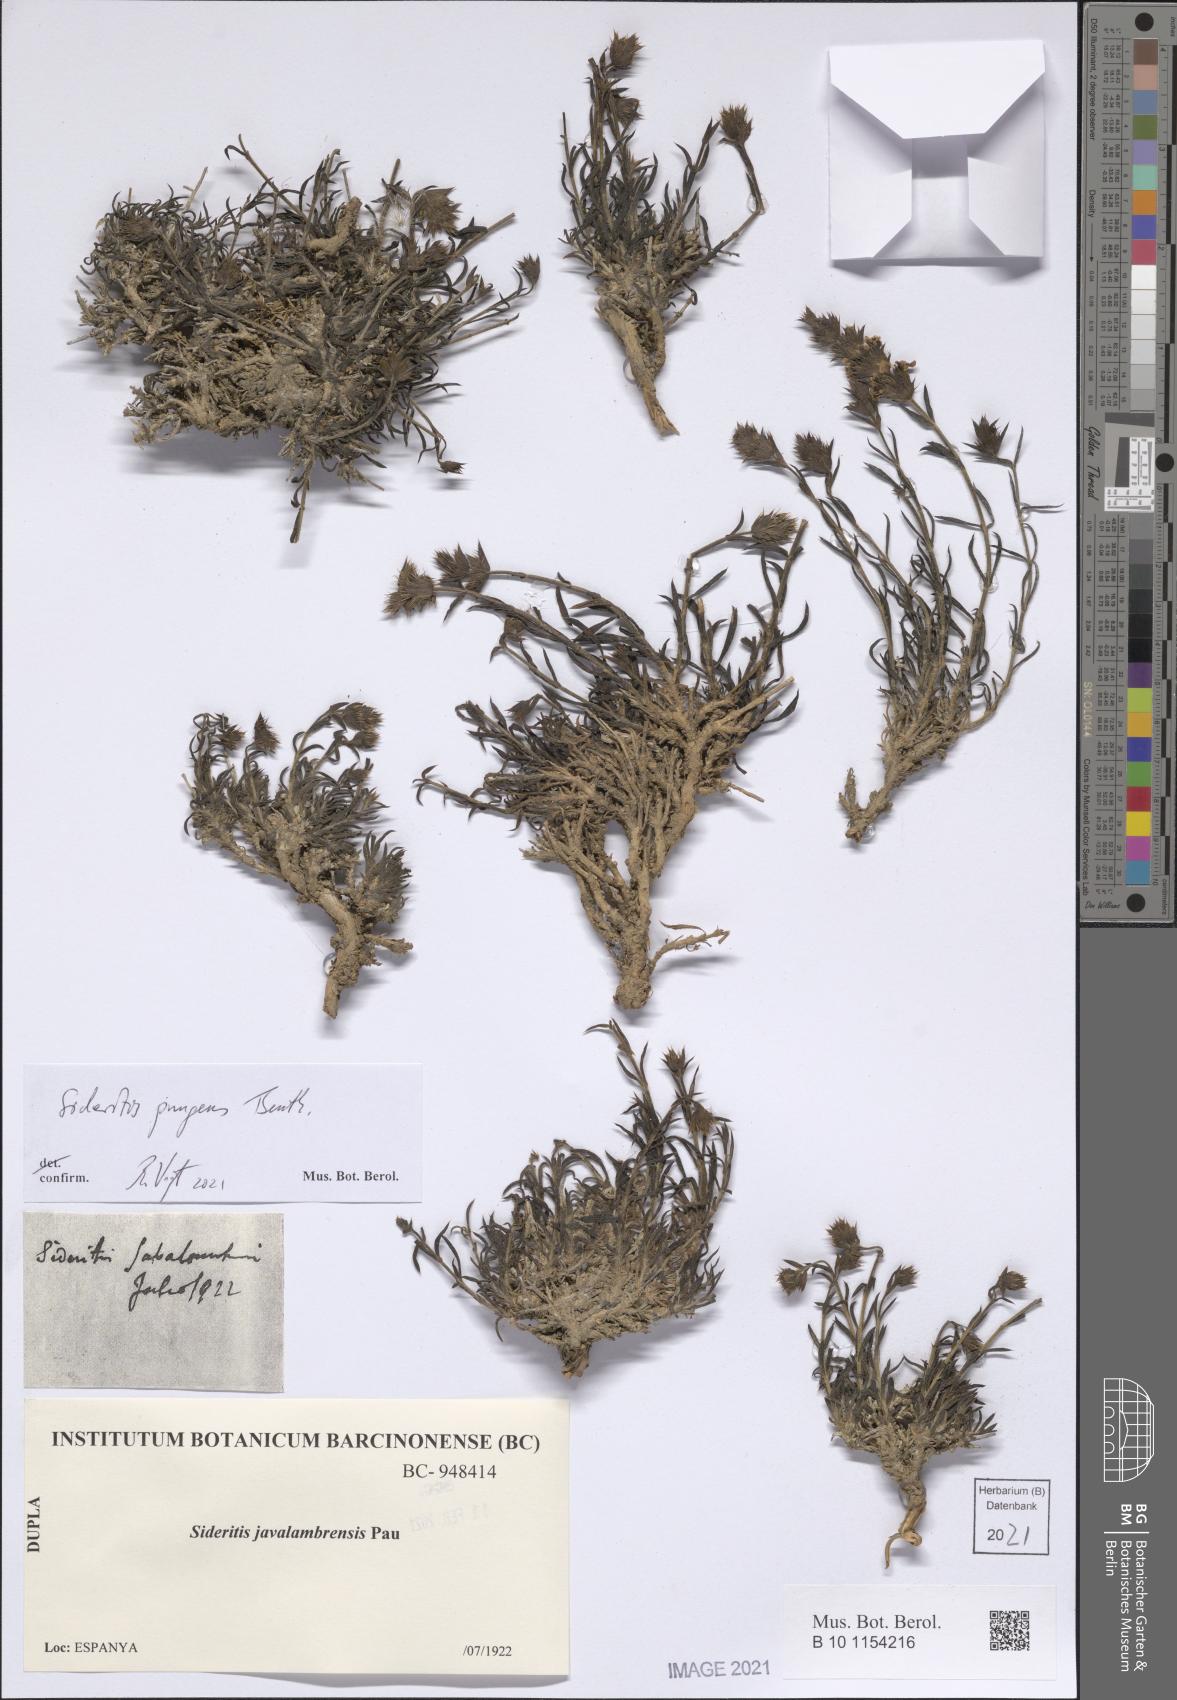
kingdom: Plantae
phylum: Tracheophyta
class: Magnoliopsida
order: Lamiales
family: Lamiaceae
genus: Sideritis
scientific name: Sideritis pungens
